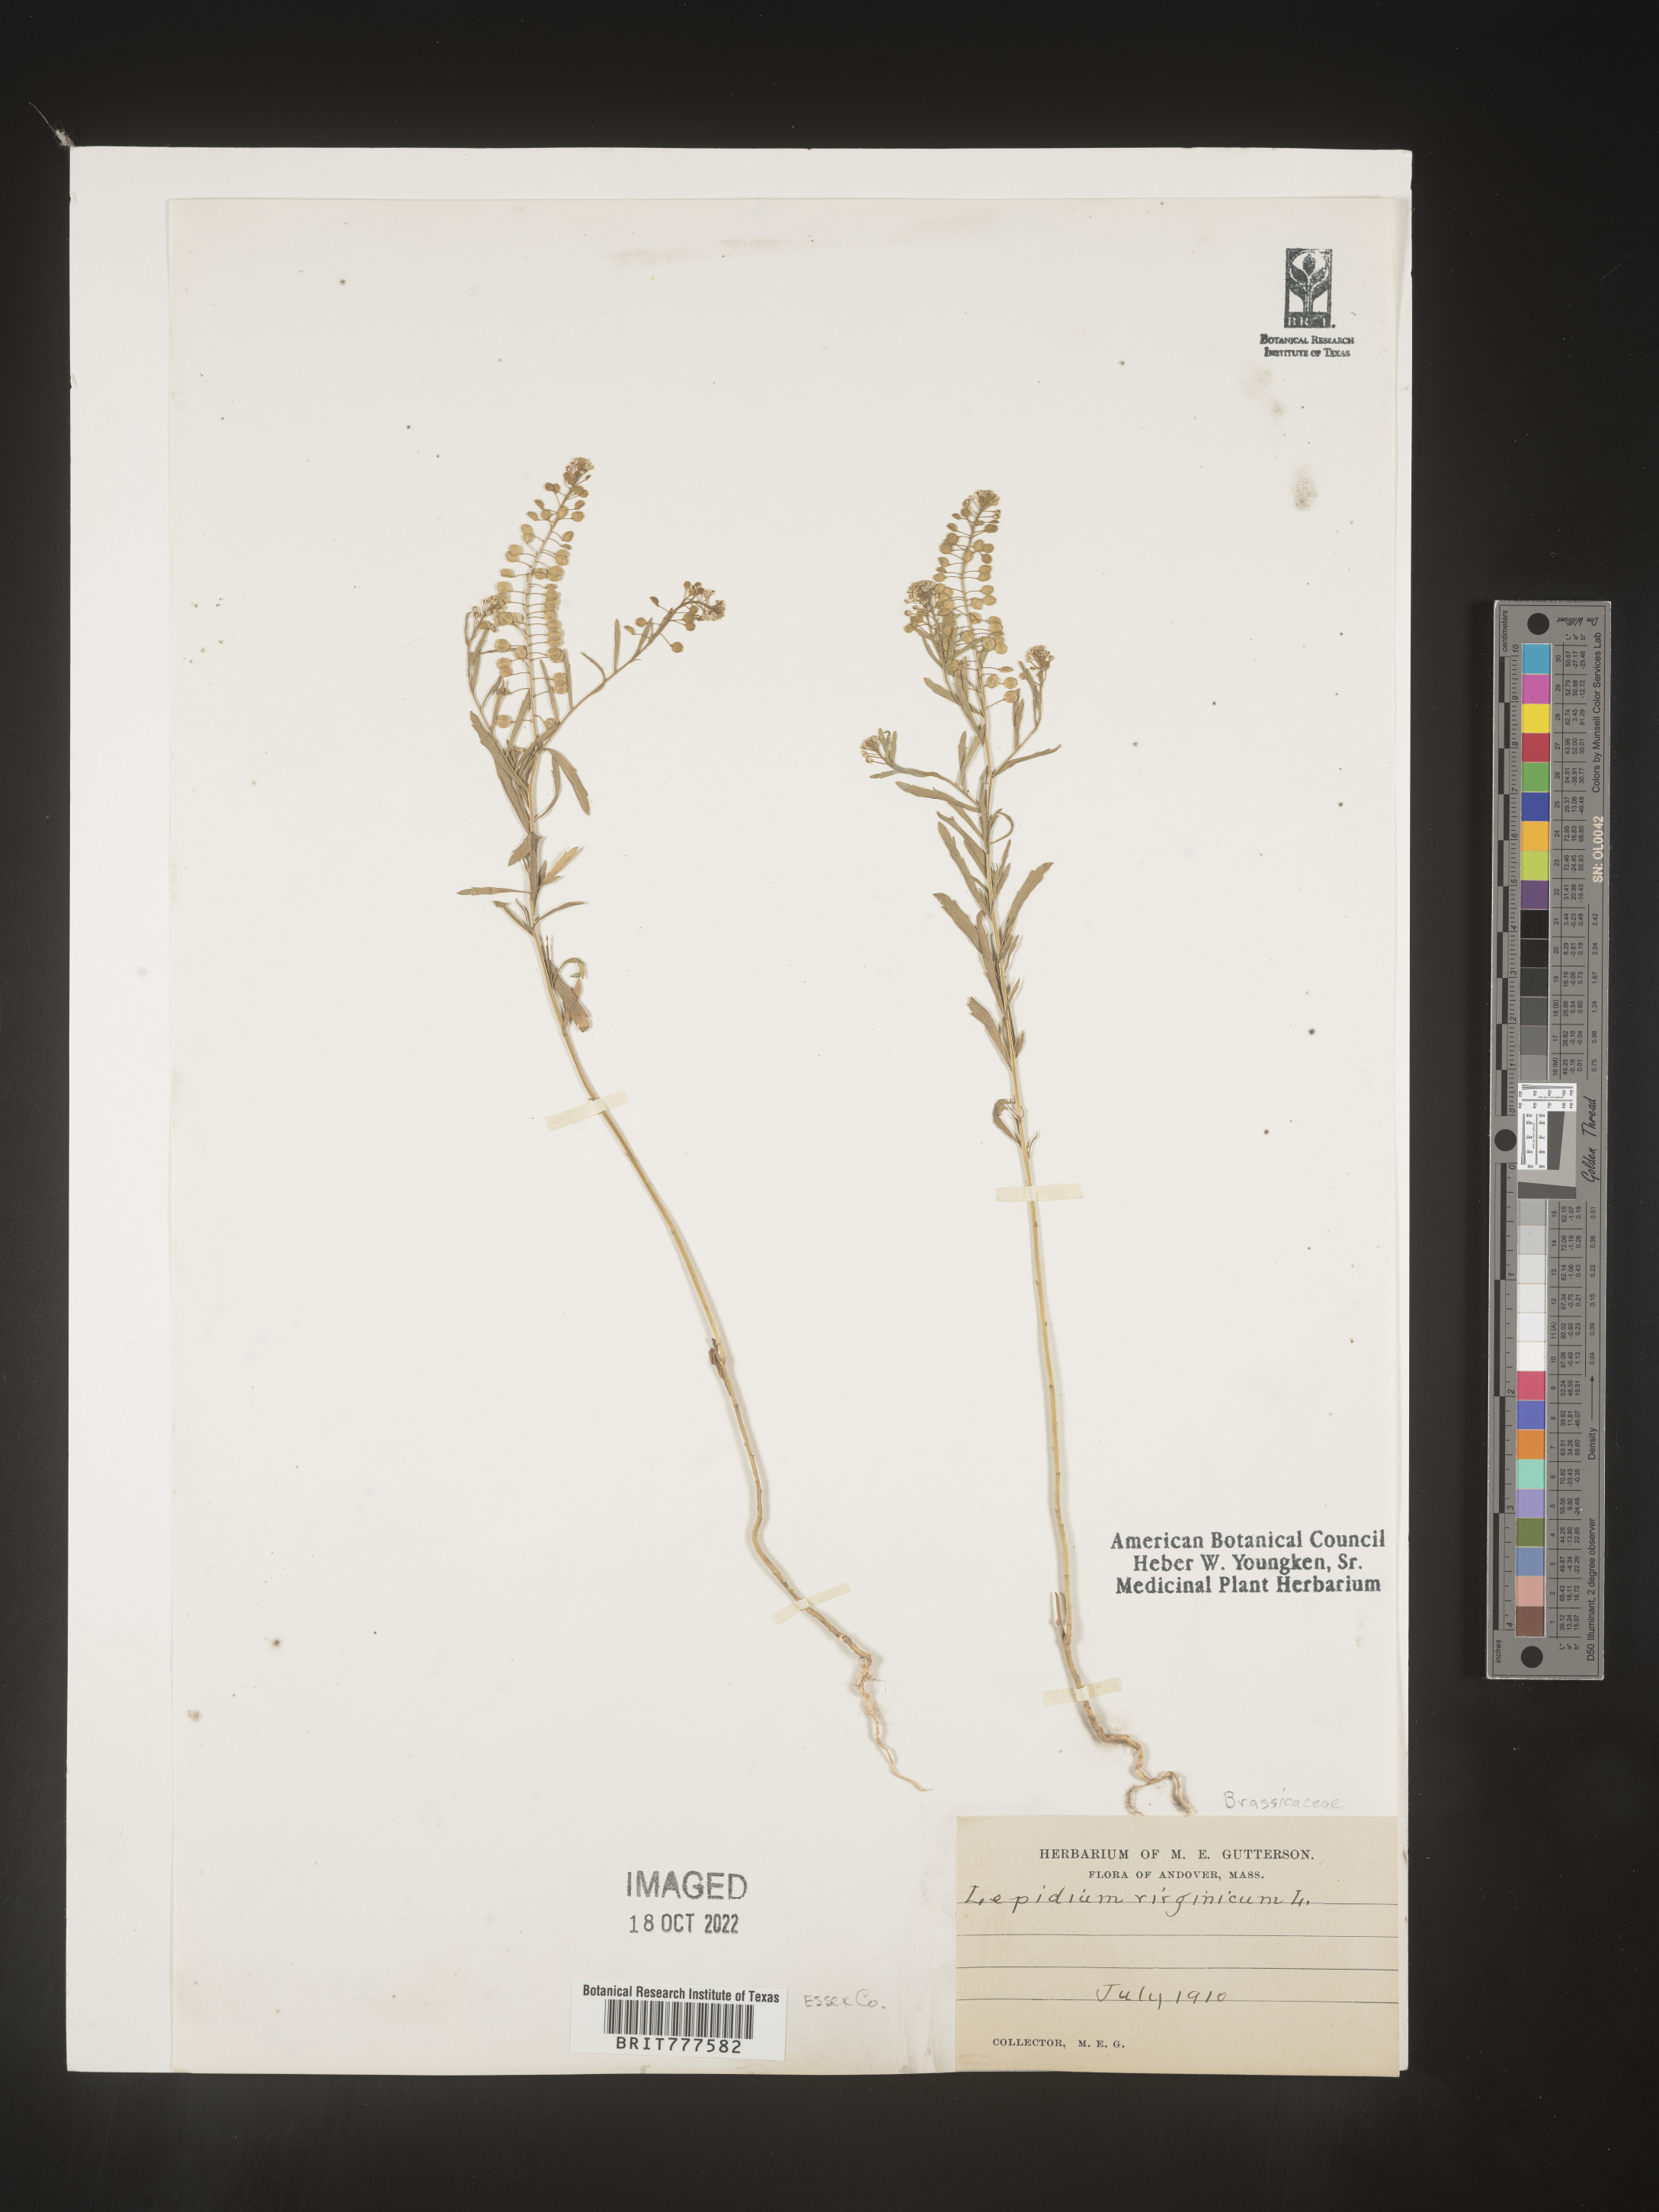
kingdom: Plantae
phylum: Tracheophyta
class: Magnoliopsida
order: Brassicales
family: Brassicaceae
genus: Lepidium
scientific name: Lepidium virginicum
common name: Least pepperwort
